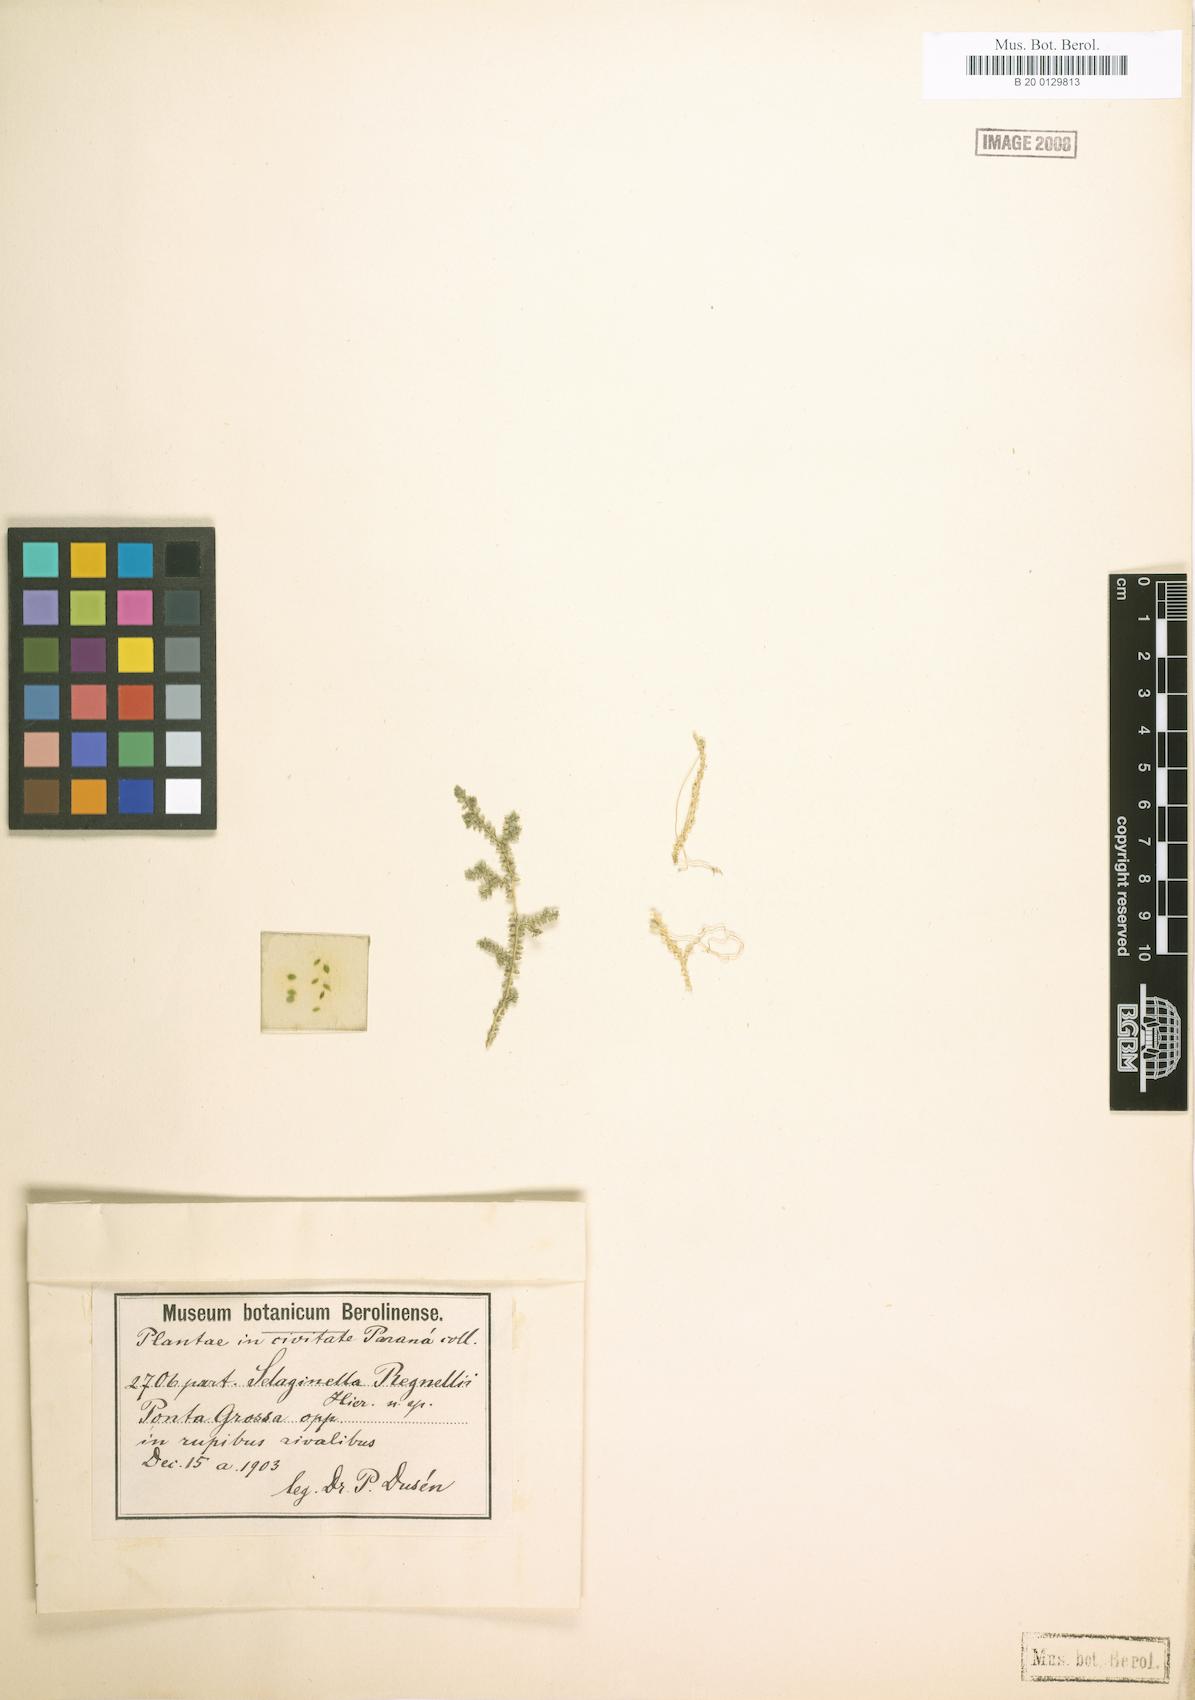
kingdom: Plantae
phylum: Tracheophyta
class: Lycopodiopsida
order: Selaginellales
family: Selaginellaceae
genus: Selaginella
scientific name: Selaginella
